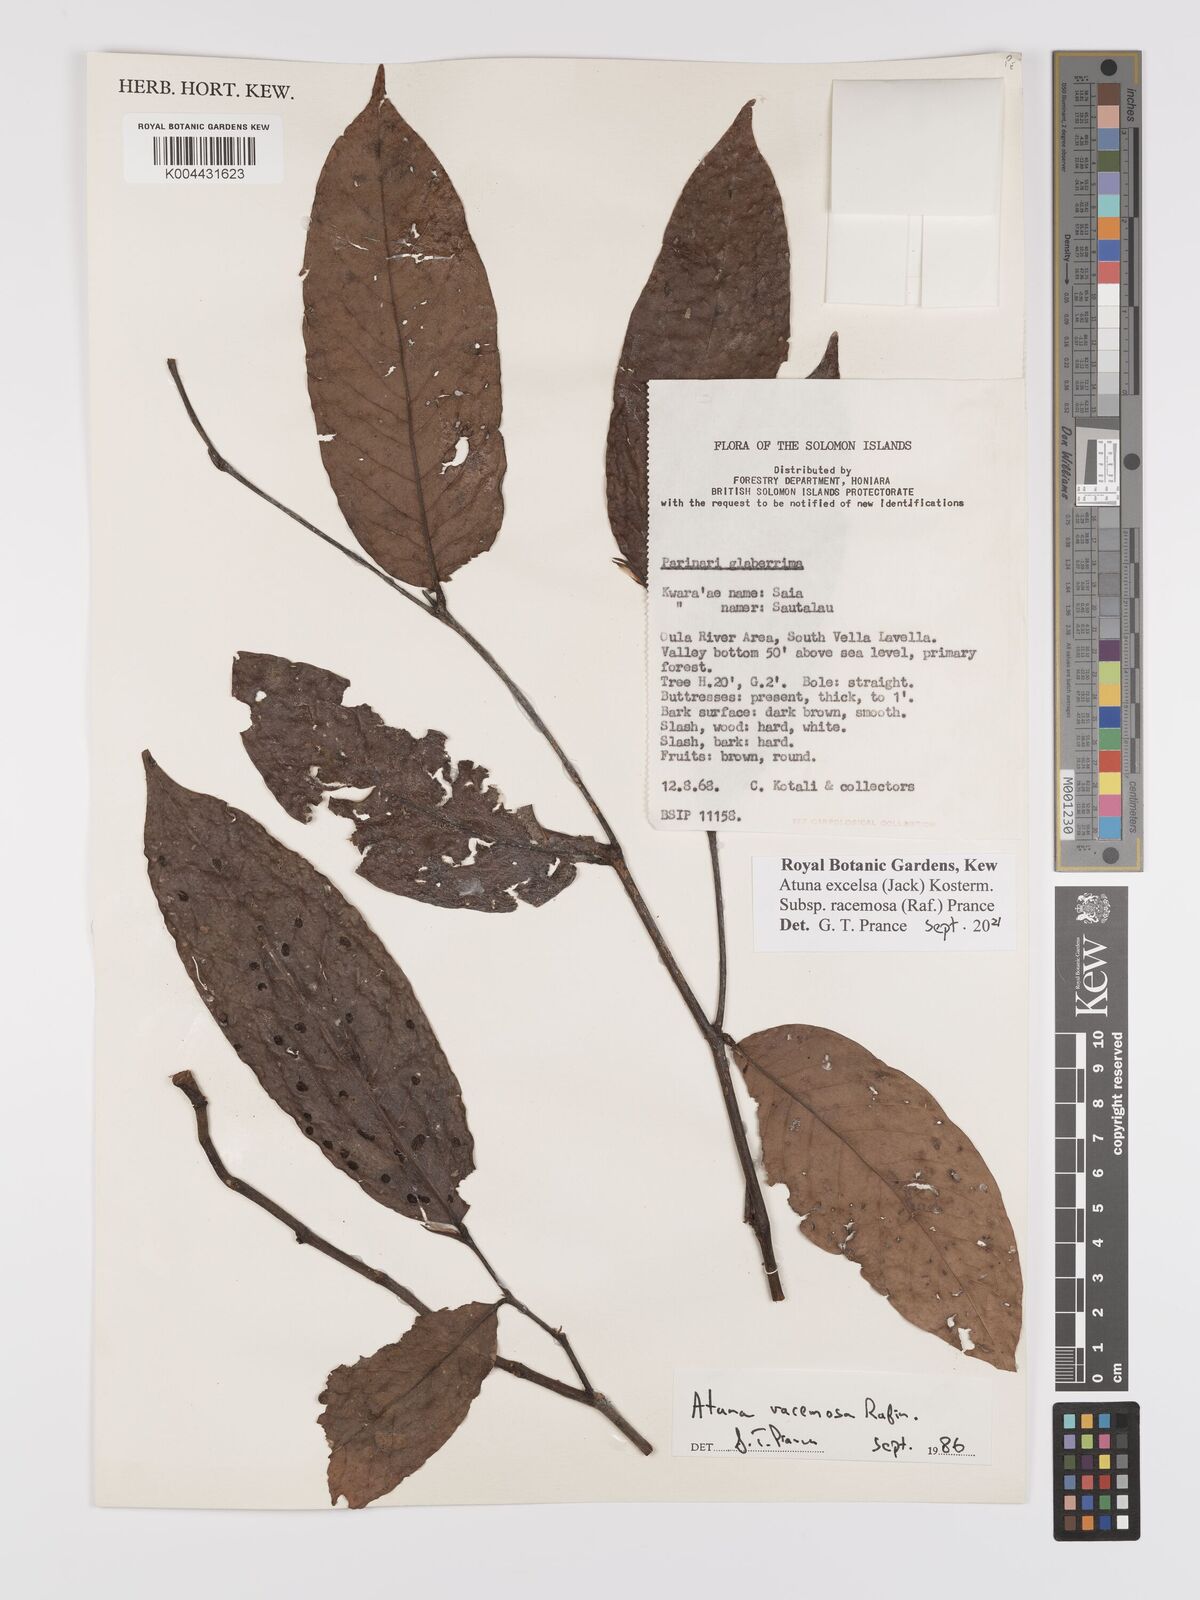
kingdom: Plantae
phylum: Tracheophyta
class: Magnoliopsida
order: Malpighiales
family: Chrysobalanaceae
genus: Atuna
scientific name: Atuna excelsa
